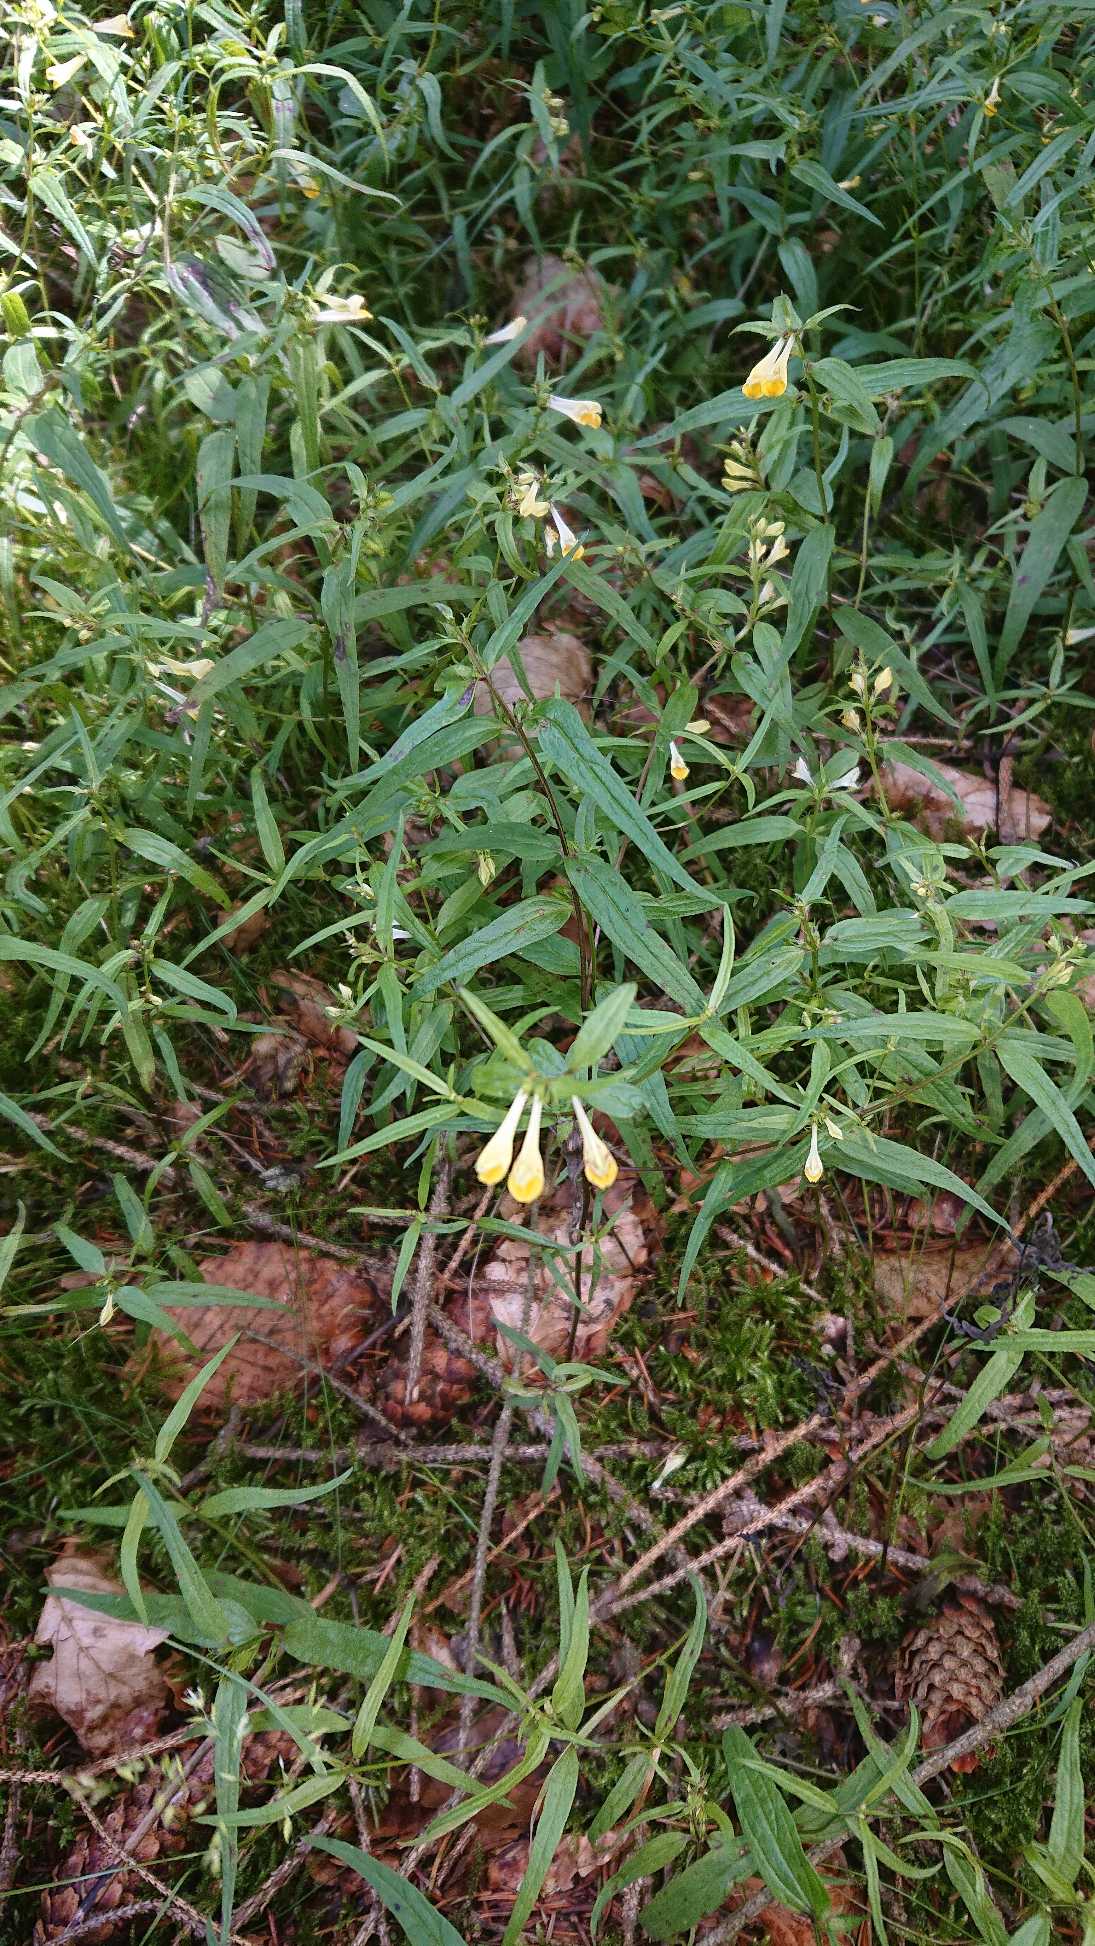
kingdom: Plantae
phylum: Tracheophyta
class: Magnoliopsida
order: Lamiales
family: Orobanchaceae
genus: Melampyrum
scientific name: Melampyrum pratense
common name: Almindelig kohvede
